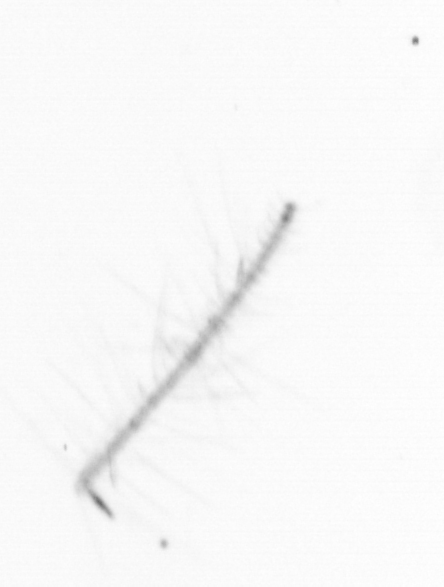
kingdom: Chromista
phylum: Ochrophyta
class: Bacillariophyceae
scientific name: Bacillariophyceae
